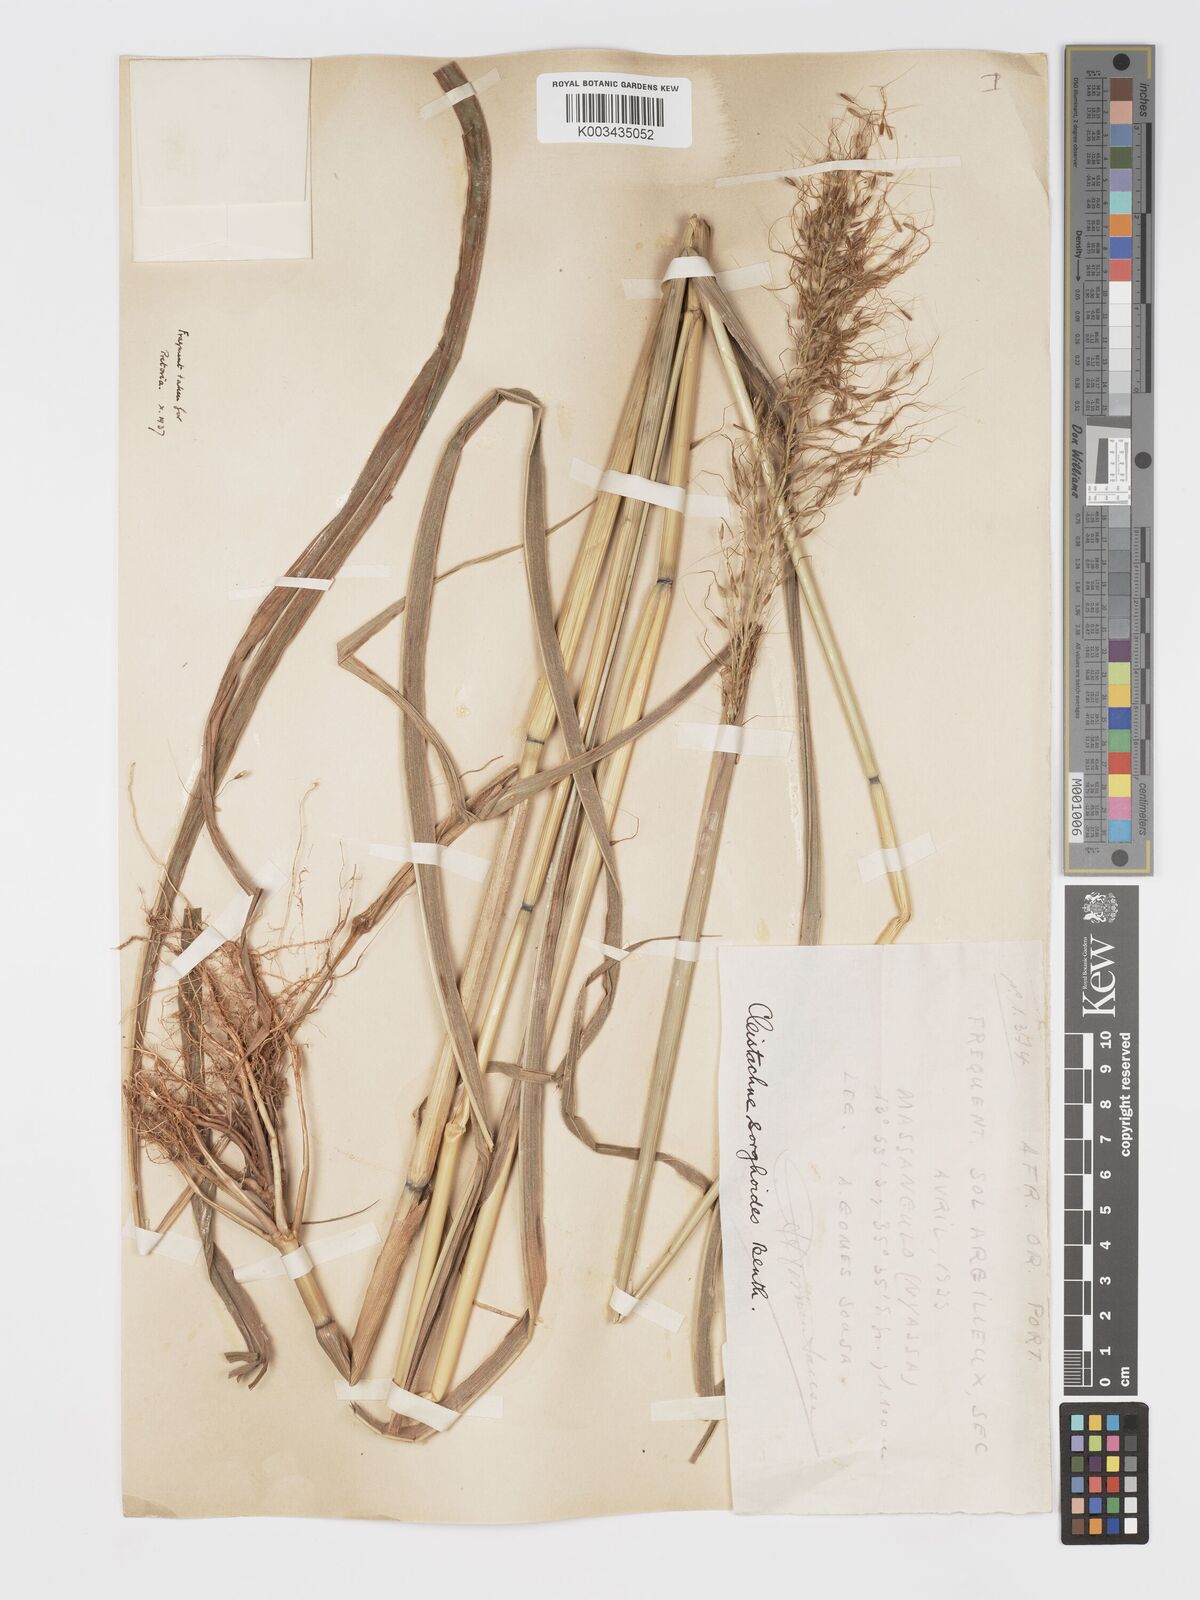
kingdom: Plantae
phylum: Tracheophyta
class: Liliopsida
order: Poales
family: Poaceae
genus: Cleistachne
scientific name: Cleistachne sorghoides
